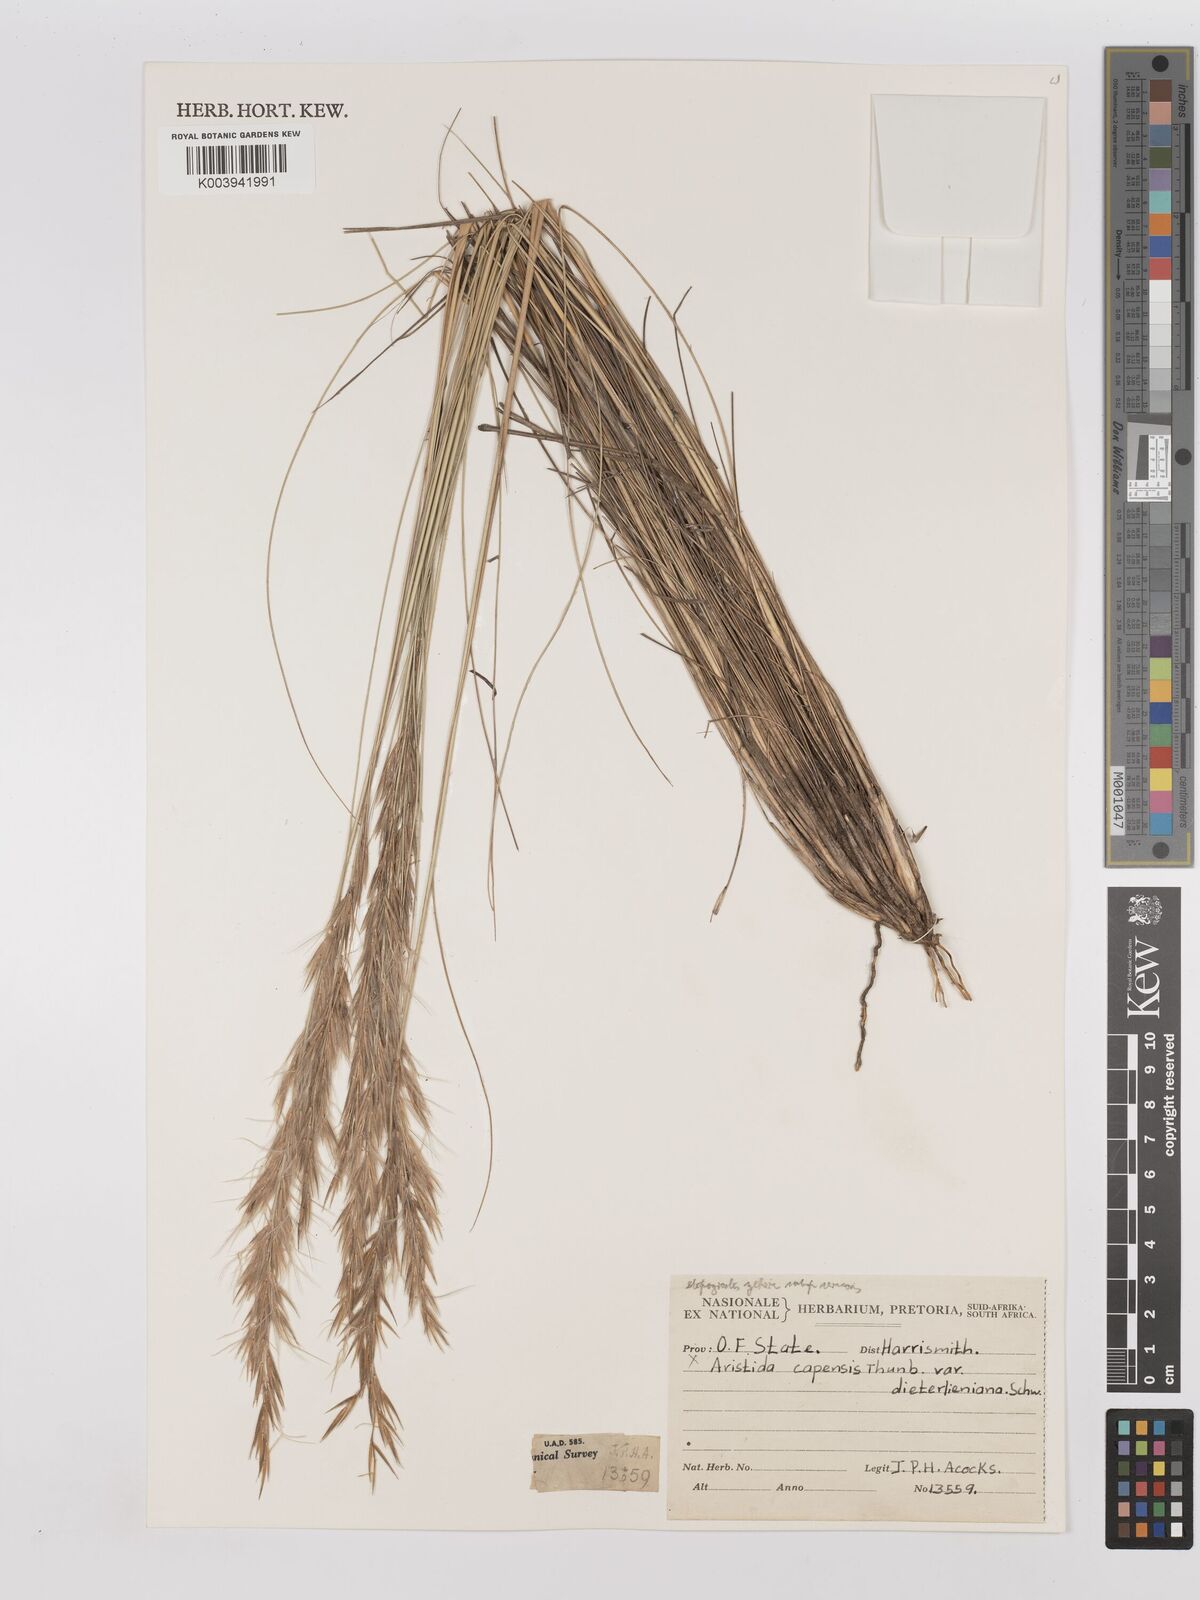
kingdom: Plantae
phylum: Tracheophyta
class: Liliopsida
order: Poales
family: Poaceae
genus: Stipagrostis
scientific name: Stipagrostis zeyheri
